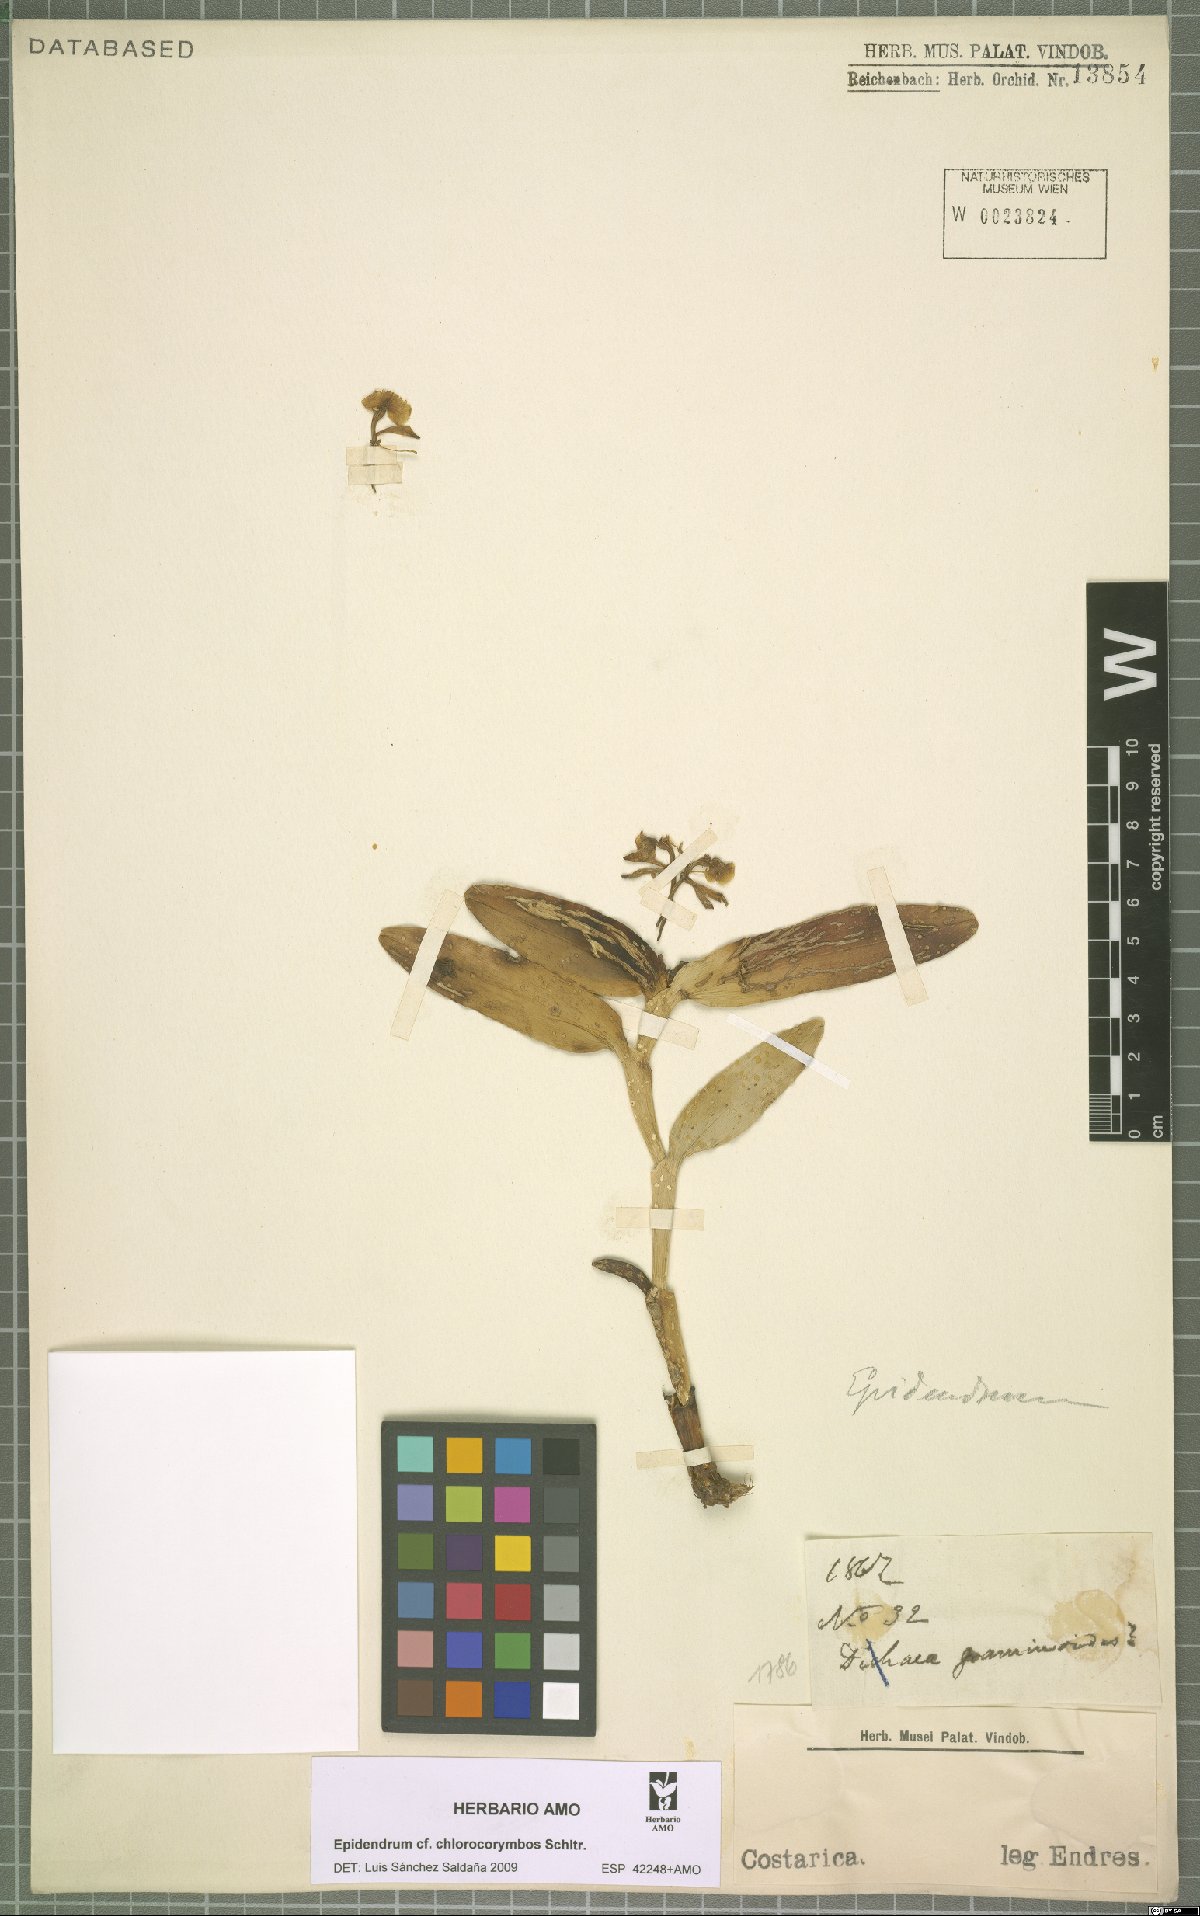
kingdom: Plantae
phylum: Tracheophyta
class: Liliopsida
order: Asparagales
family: Orchidaceae
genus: Epidendrum
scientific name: Epidendrum chlorocorymbos
